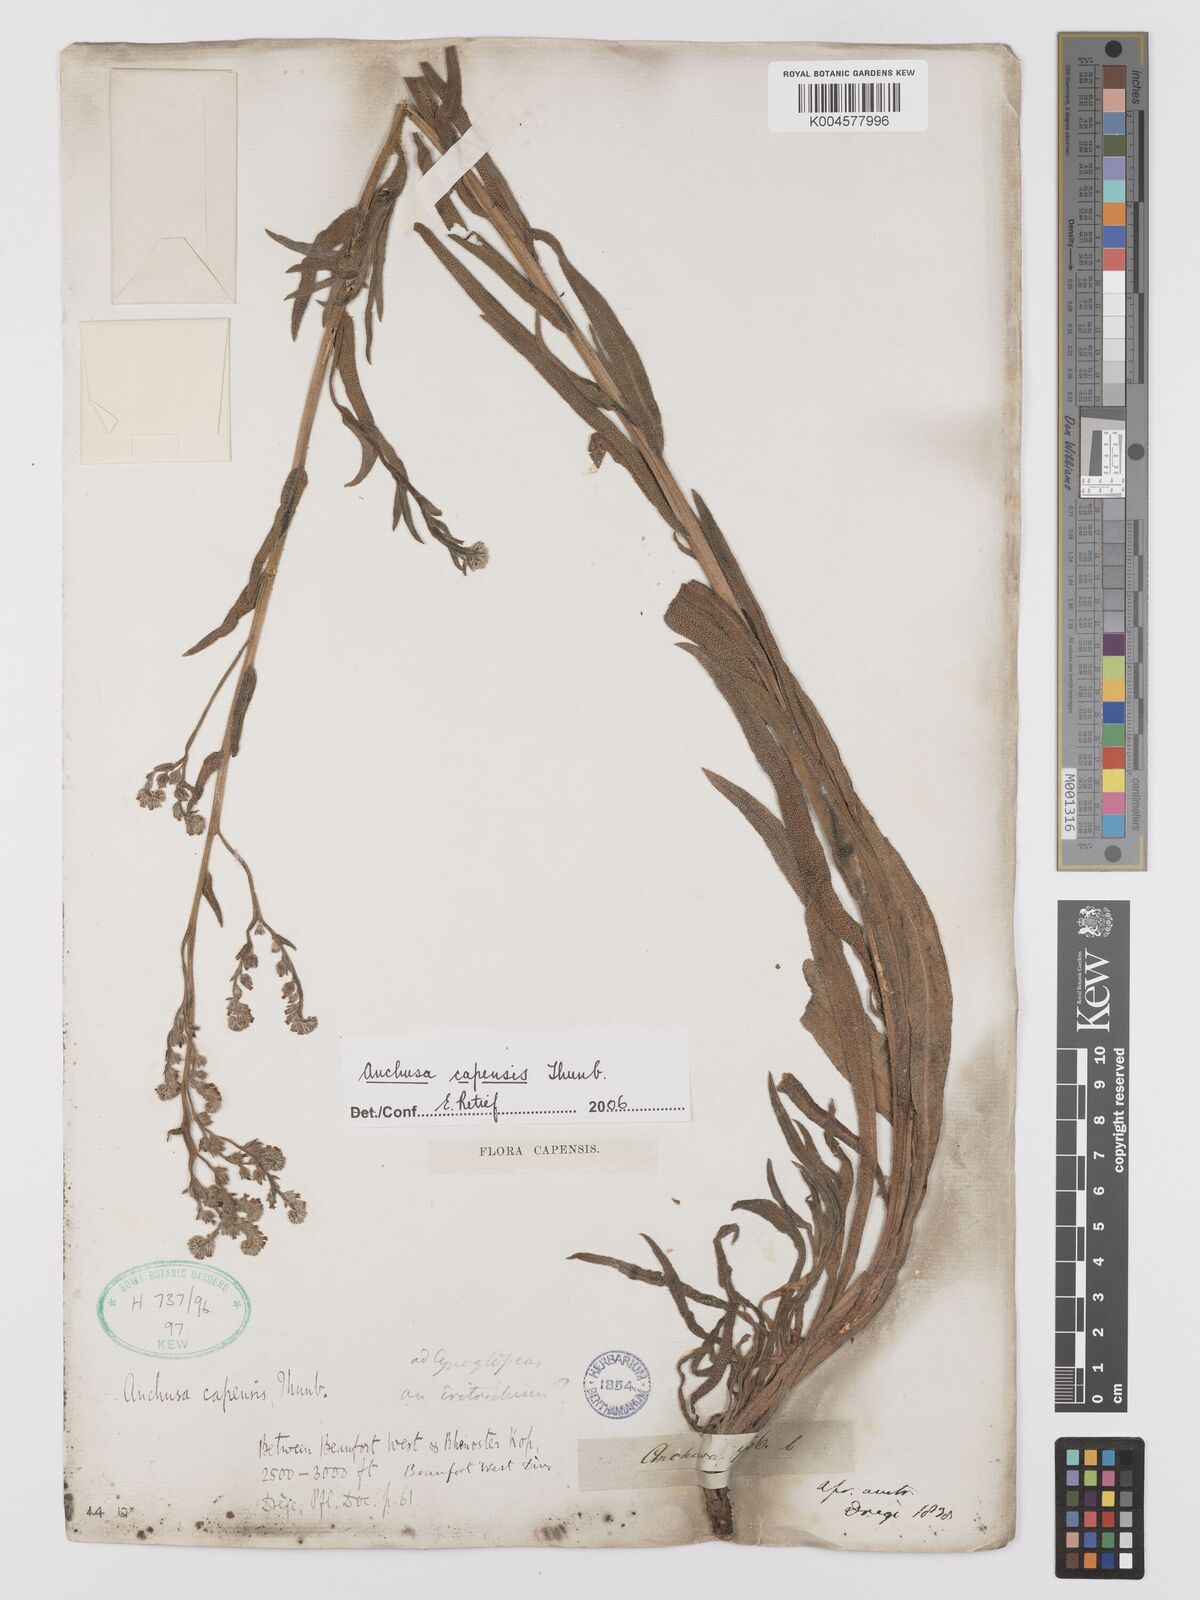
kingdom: Plantae
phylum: Tracheophyta
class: Magnoliopsida
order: Boraginales
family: Boraginaceae
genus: Anchusa
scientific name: Anchusa capensis
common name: Cape bugloss
